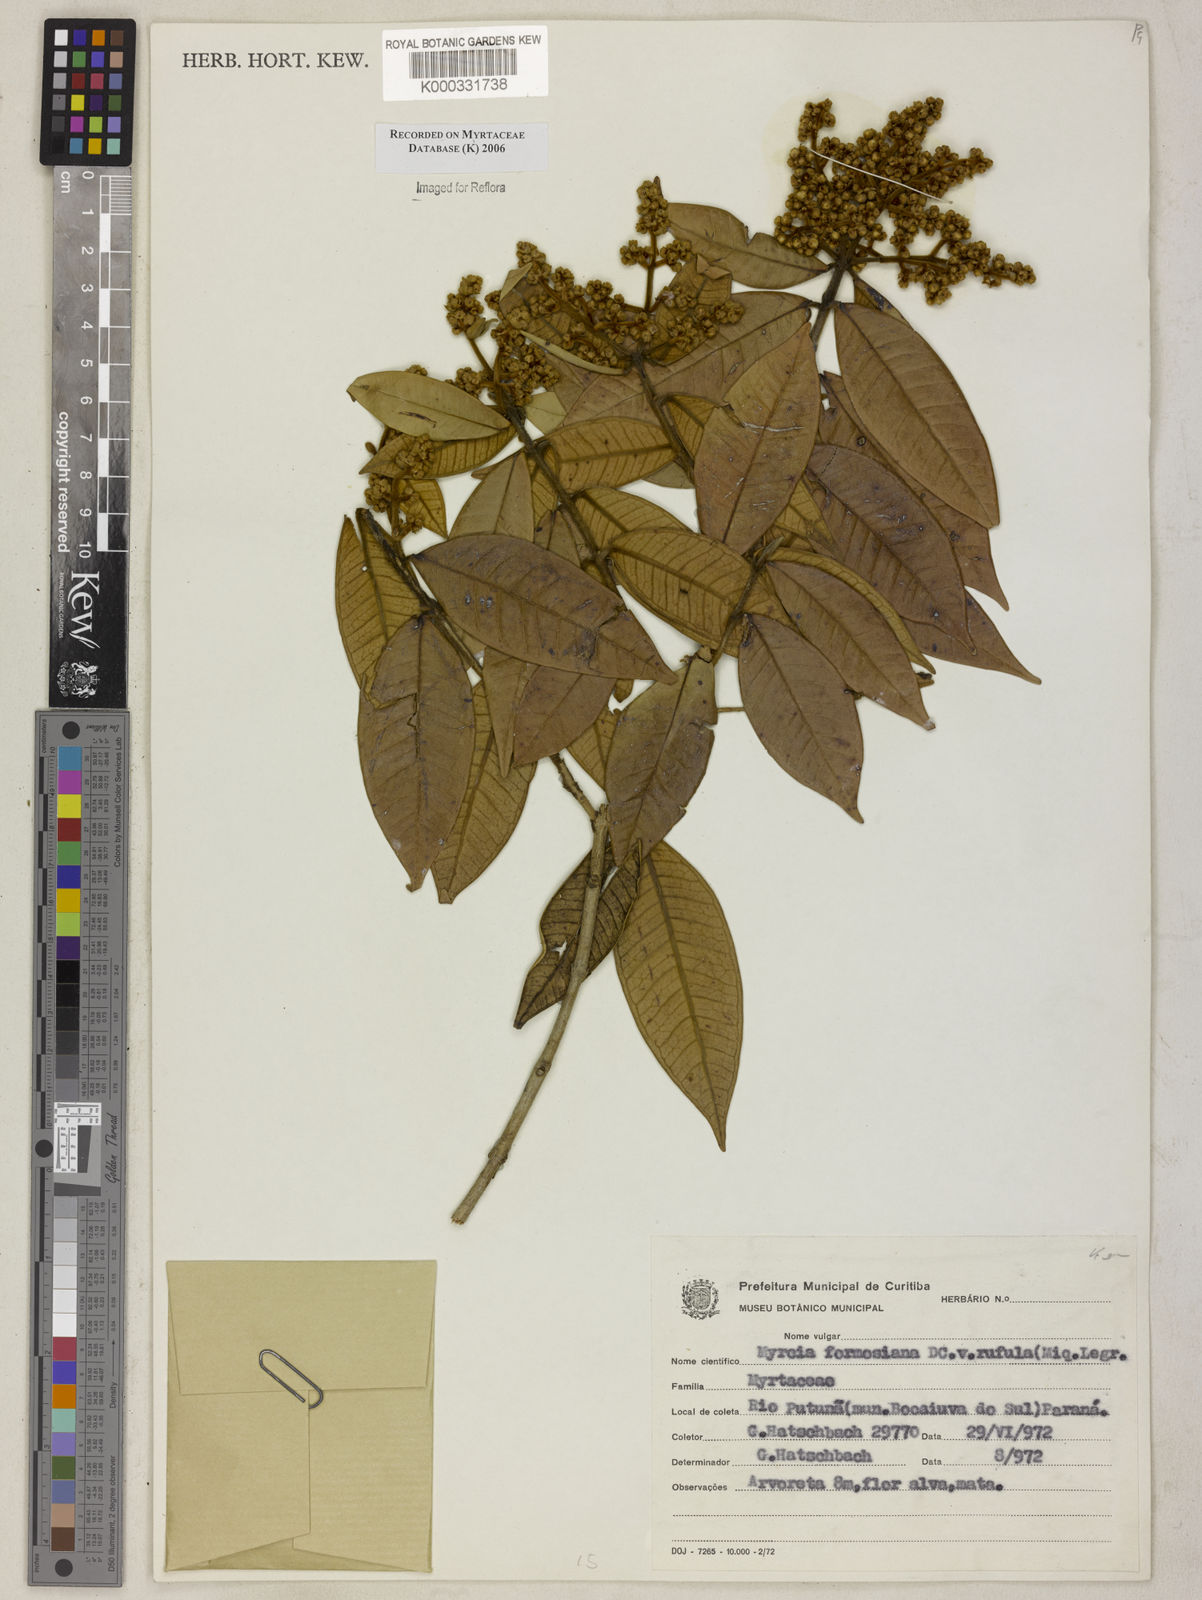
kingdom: Plantae
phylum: Tracheophyta
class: Magnoliopsida
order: Myrtales
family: Myrtaceae
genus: Myrcia
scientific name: Myrcia splendens
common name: Surinam cherry
